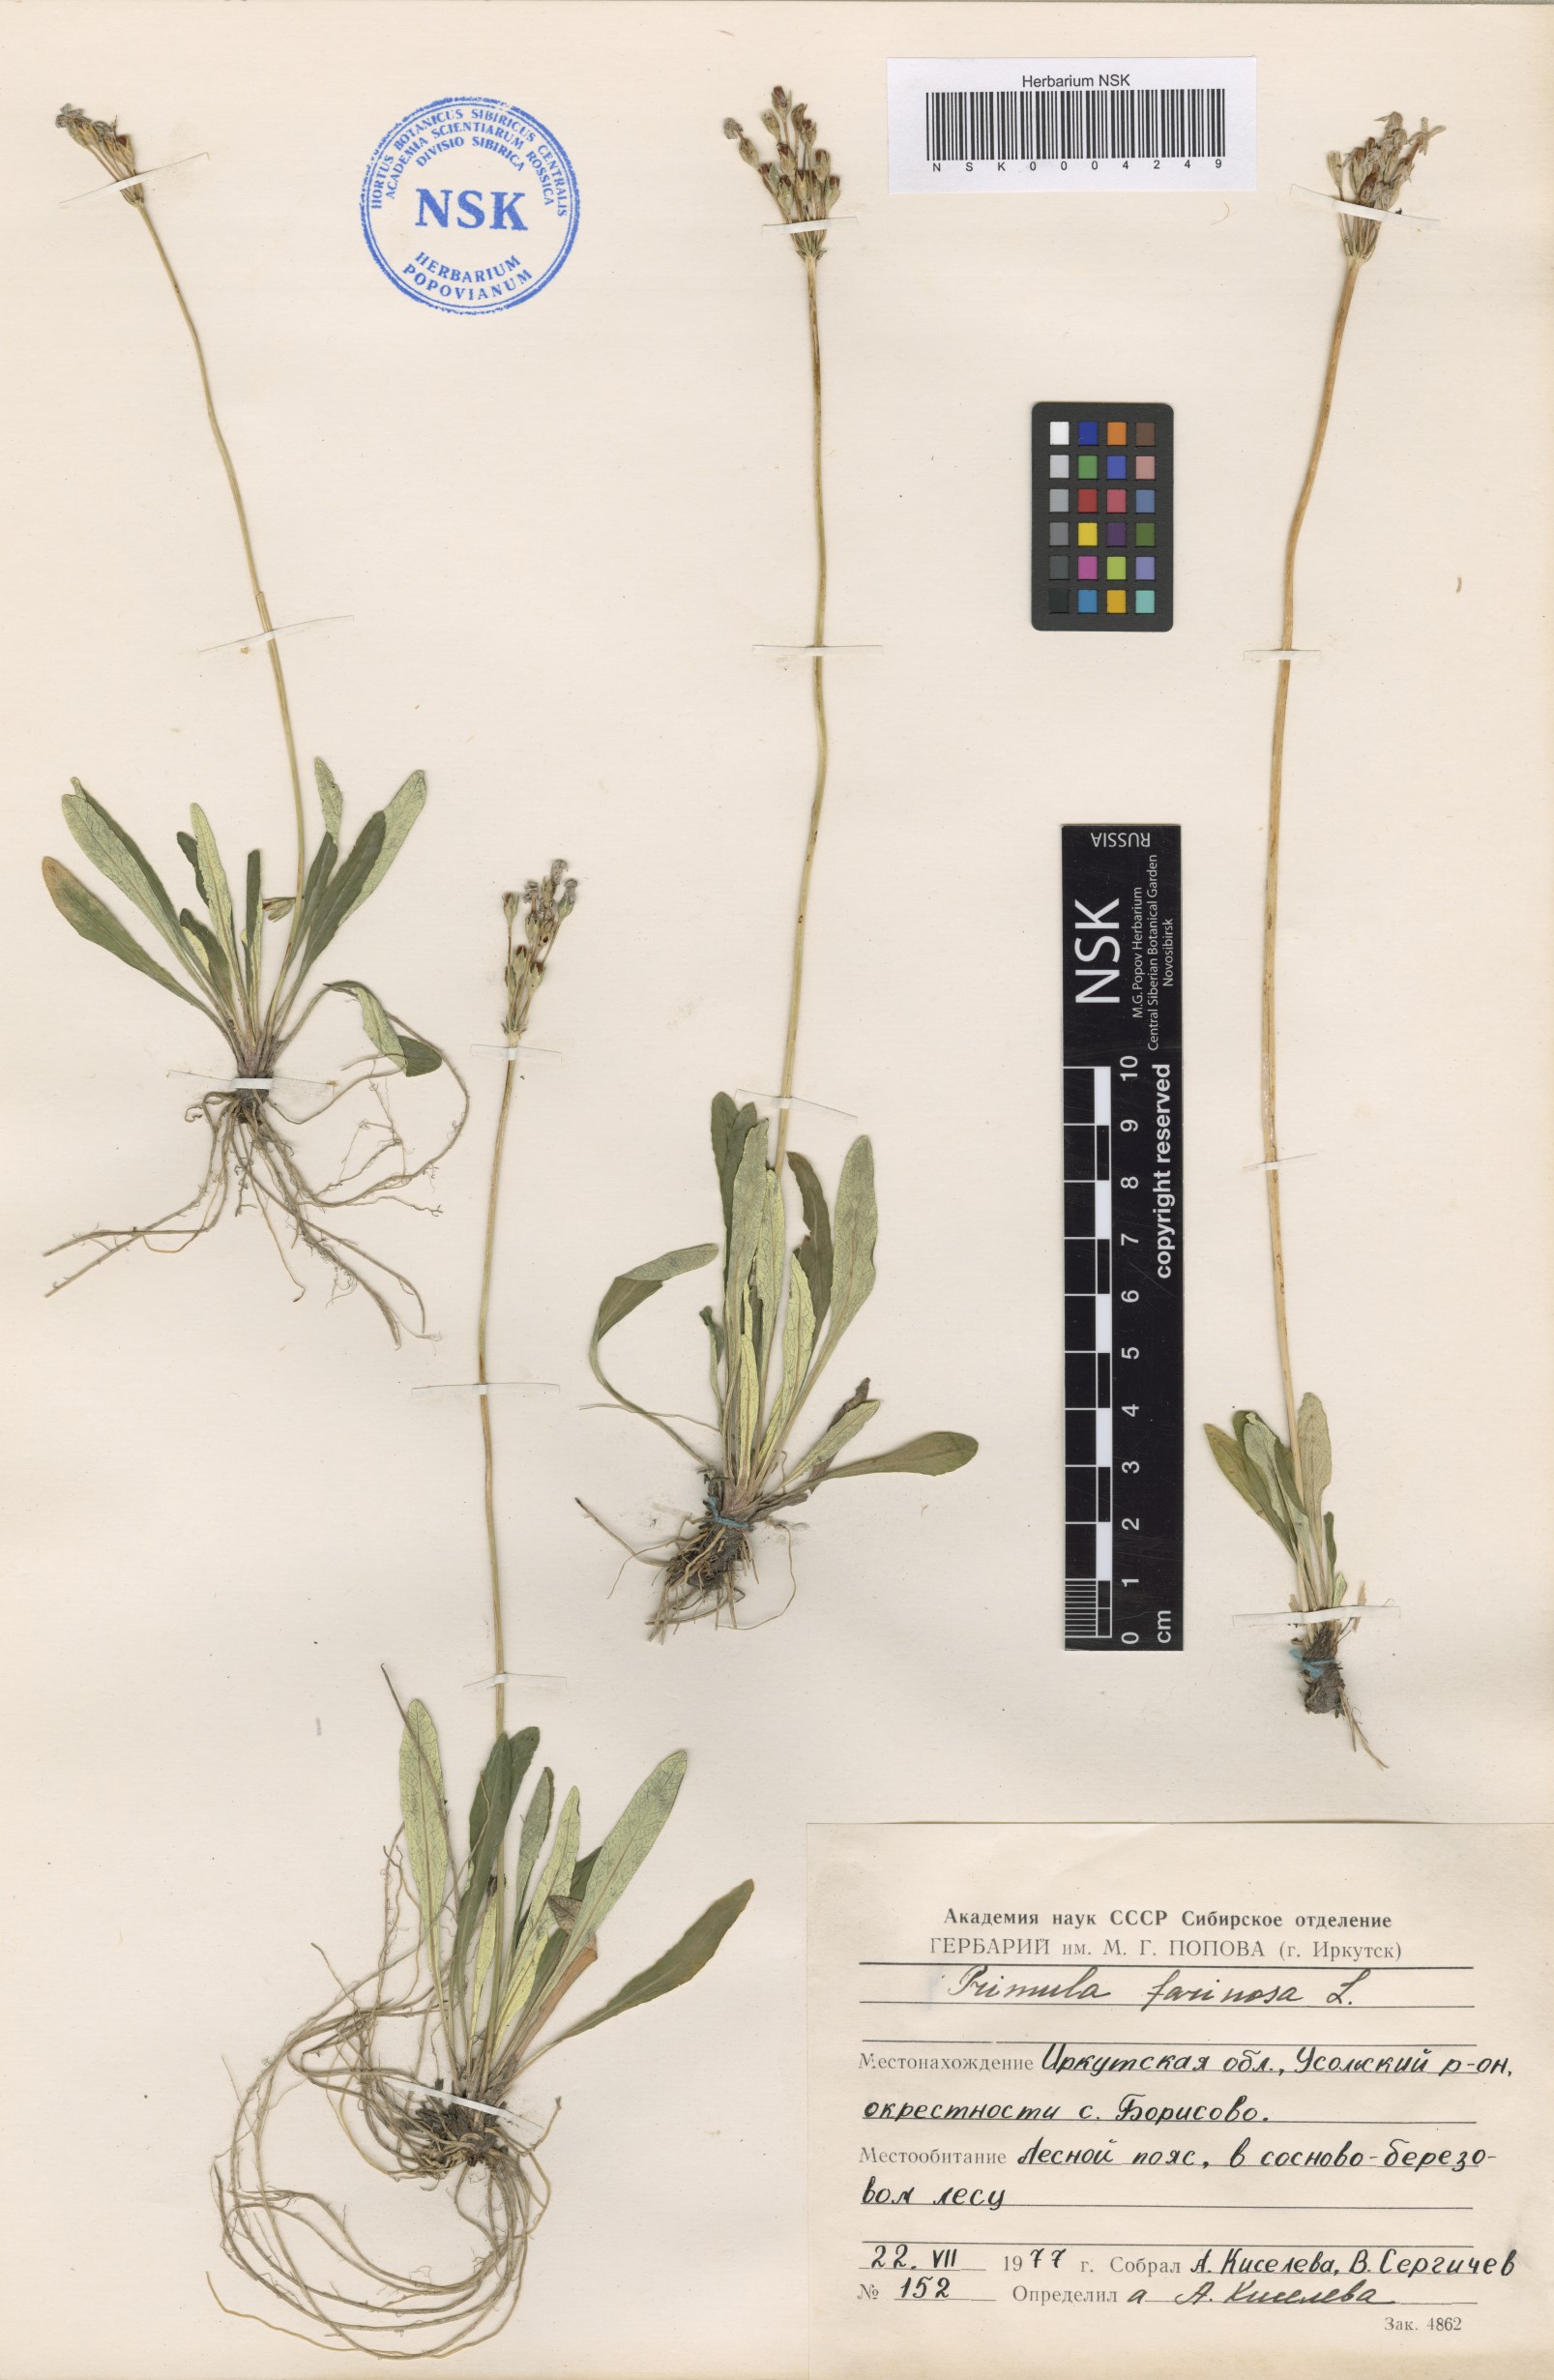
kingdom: Plantae
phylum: Tracheophyta
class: Magnoliopsida
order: Ericales
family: Primulaceae
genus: Primula
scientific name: Primula farinosa
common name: Bird's-eye primrose
